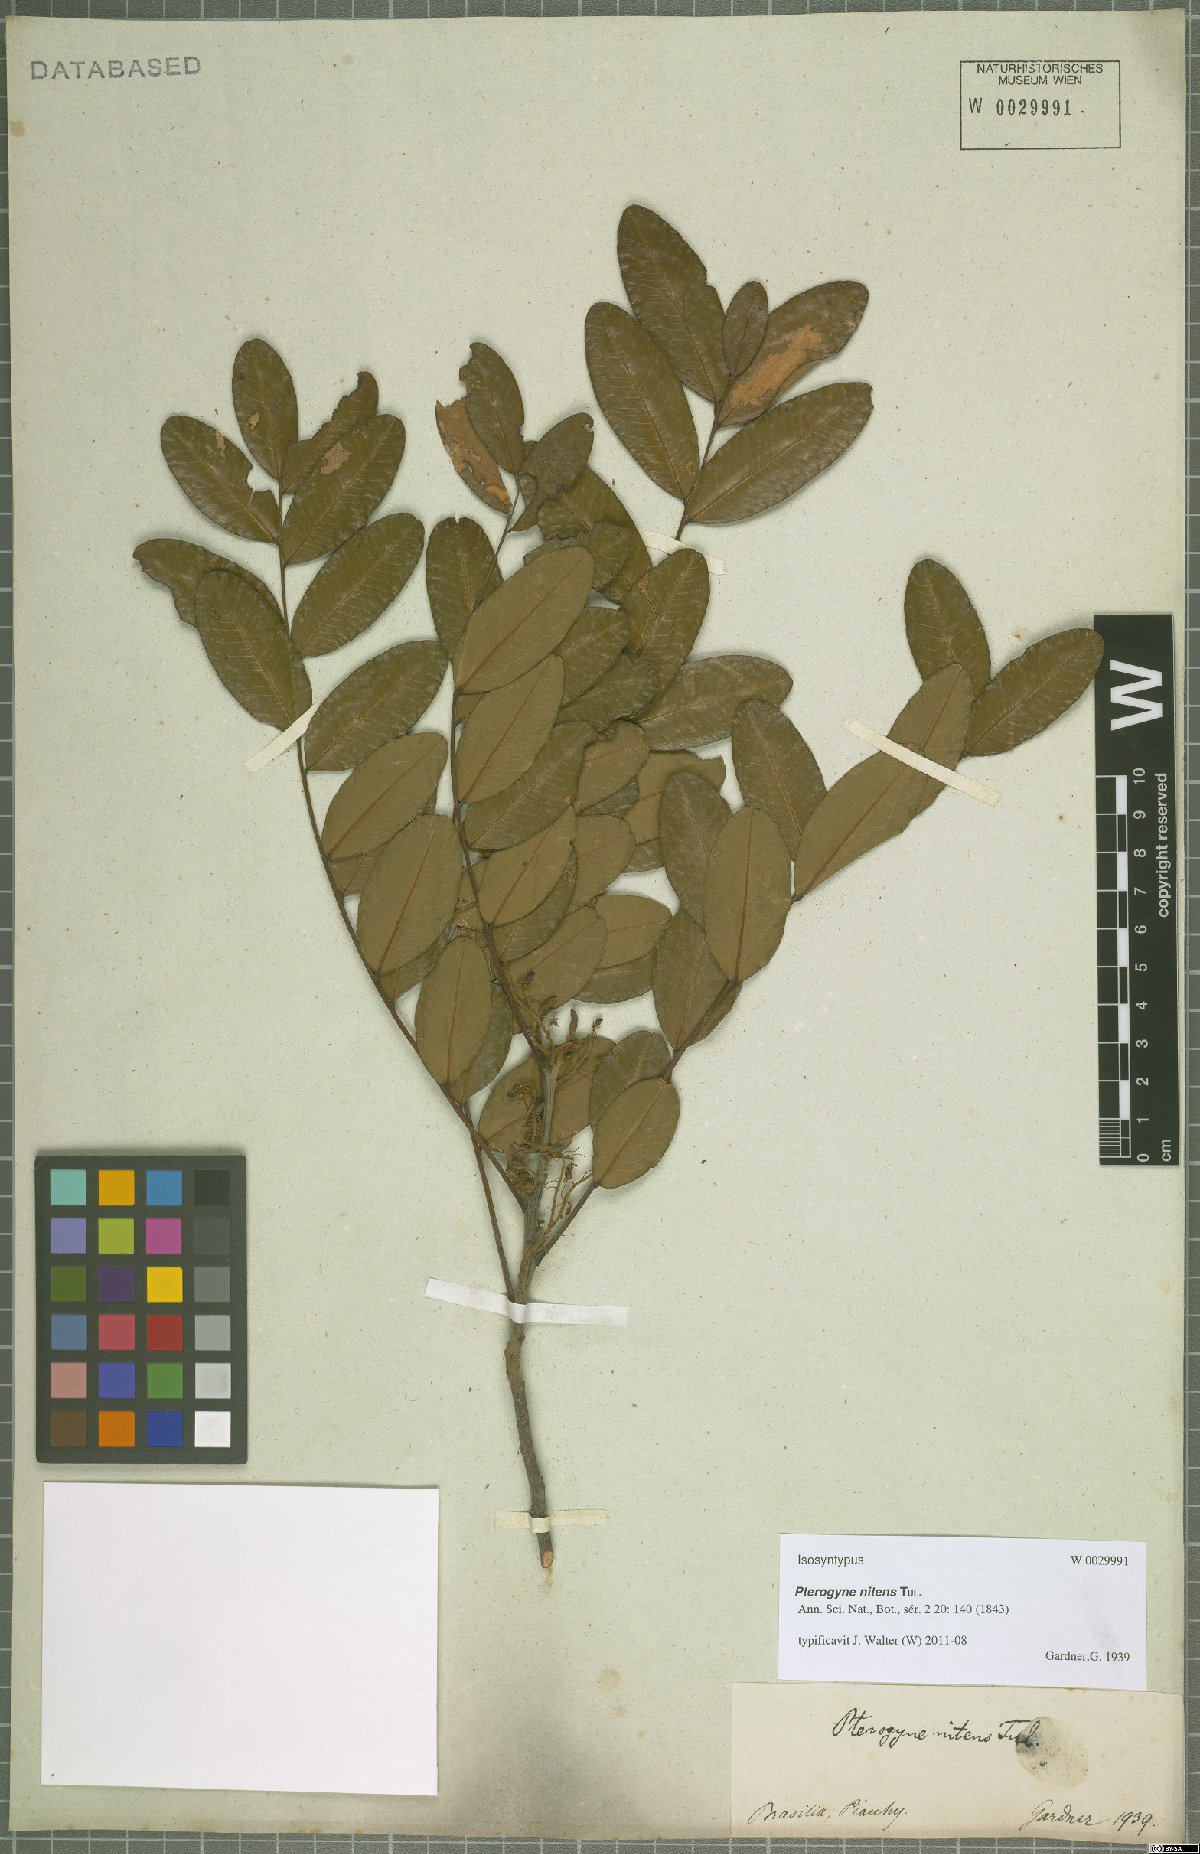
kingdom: Plantae
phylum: Tracheophyta
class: Magnoliopsida
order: Fabales
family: Fabaceae
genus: Pterogyne
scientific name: Pterogyne nitens
